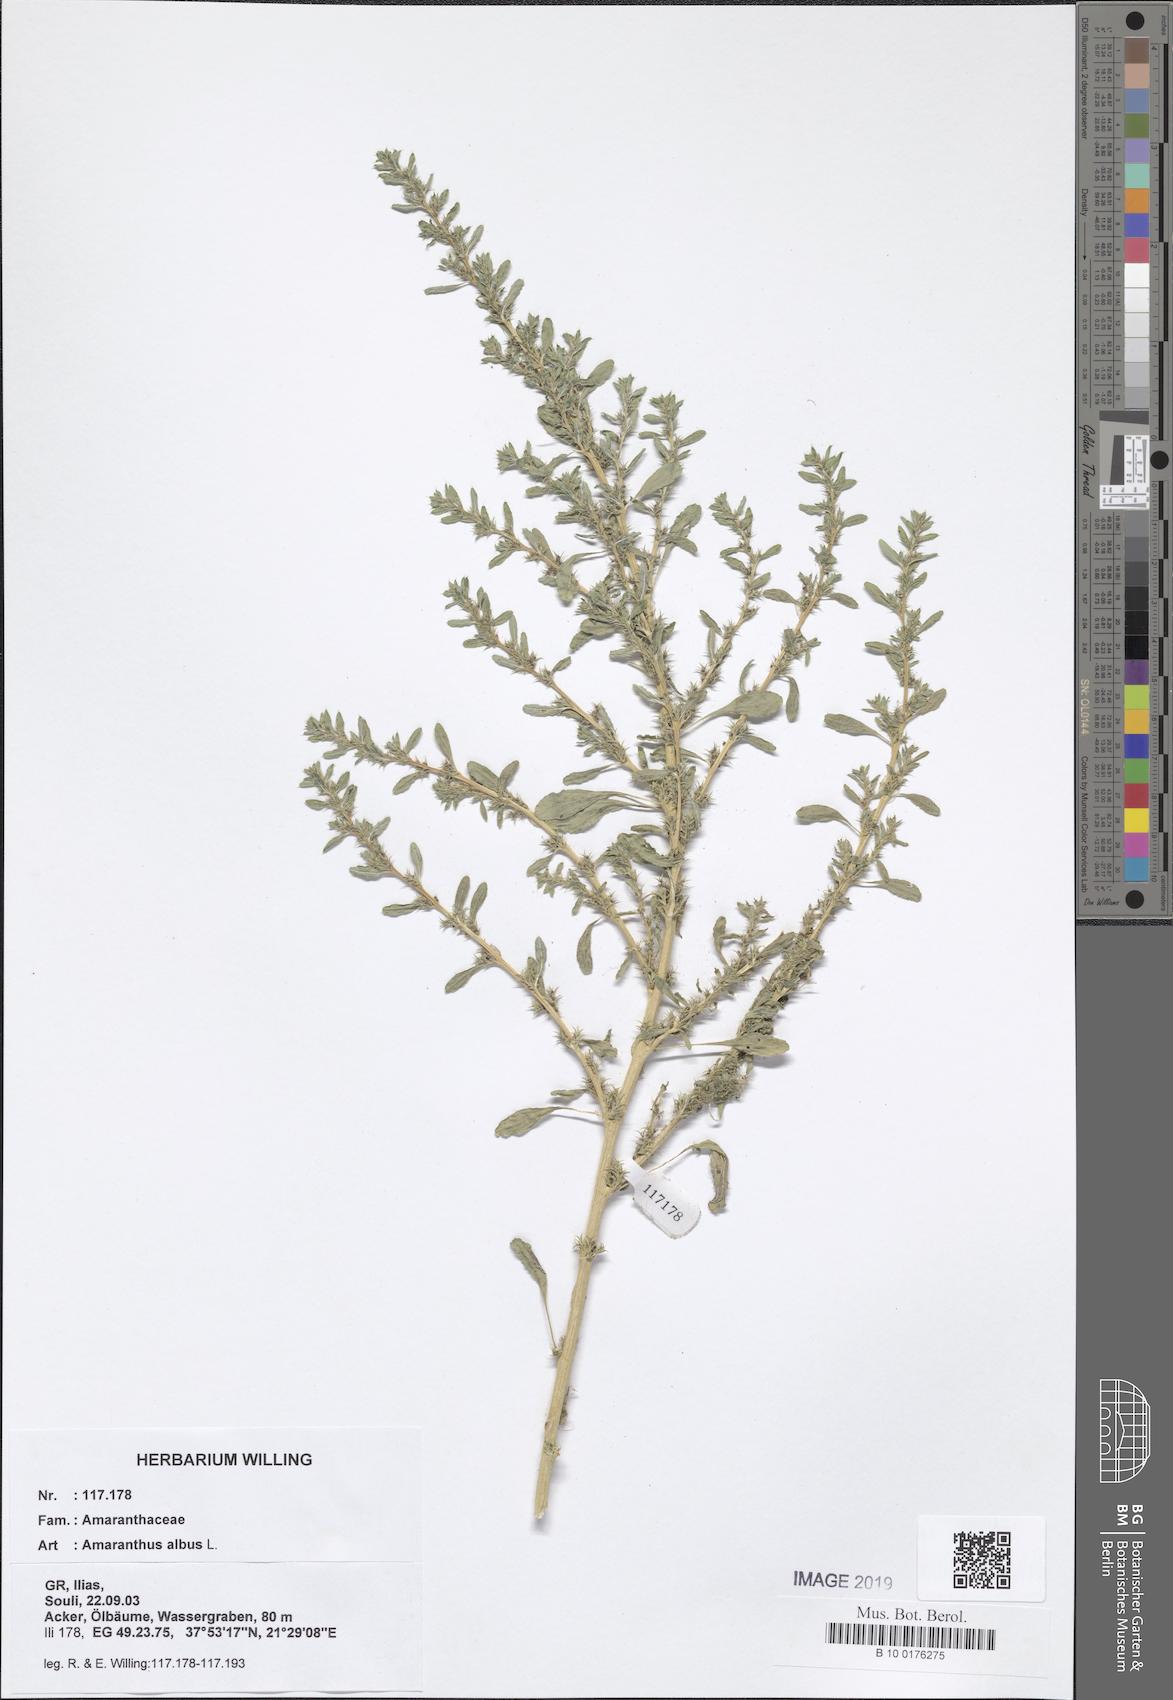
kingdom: Plantae
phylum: Tracheophyta
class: Magnoliopsida
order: Caryophyllales
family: Amaranthaceae
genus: Amaranthus
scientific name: Amaranthus albus
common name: White pigweed
